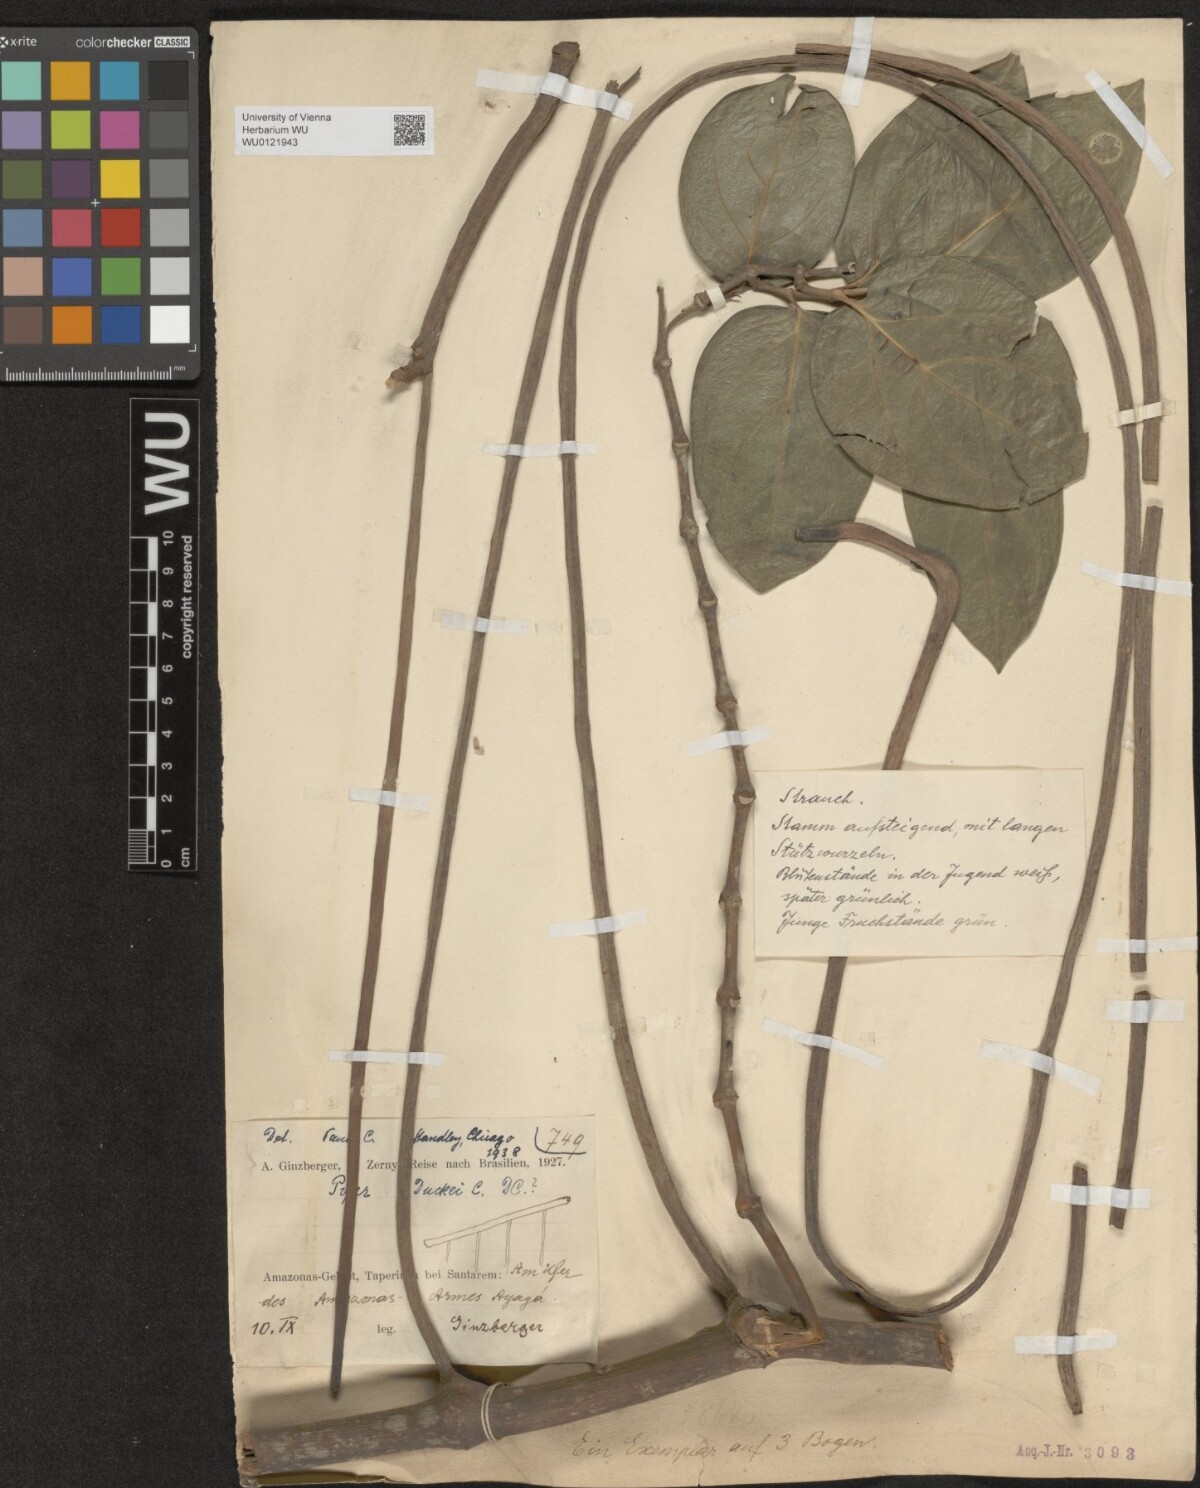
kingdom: Plantae
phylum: Tracheophyta
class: Magnoliopsida
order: Piperales
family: Piperaceae
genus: Piper
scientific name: Piper duckei
